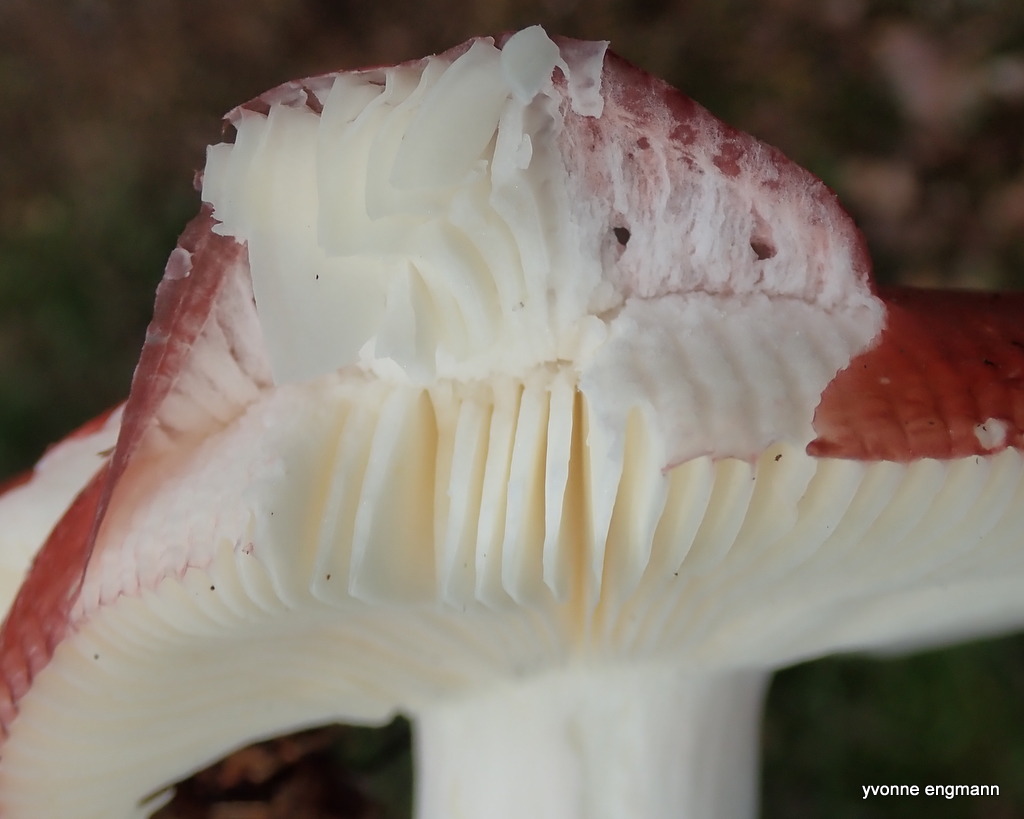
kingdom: Fungi
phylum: Basidiomycota
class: Agaricomycetes
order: Russulales
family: Russulaceae
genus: Russula
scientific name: Russula
